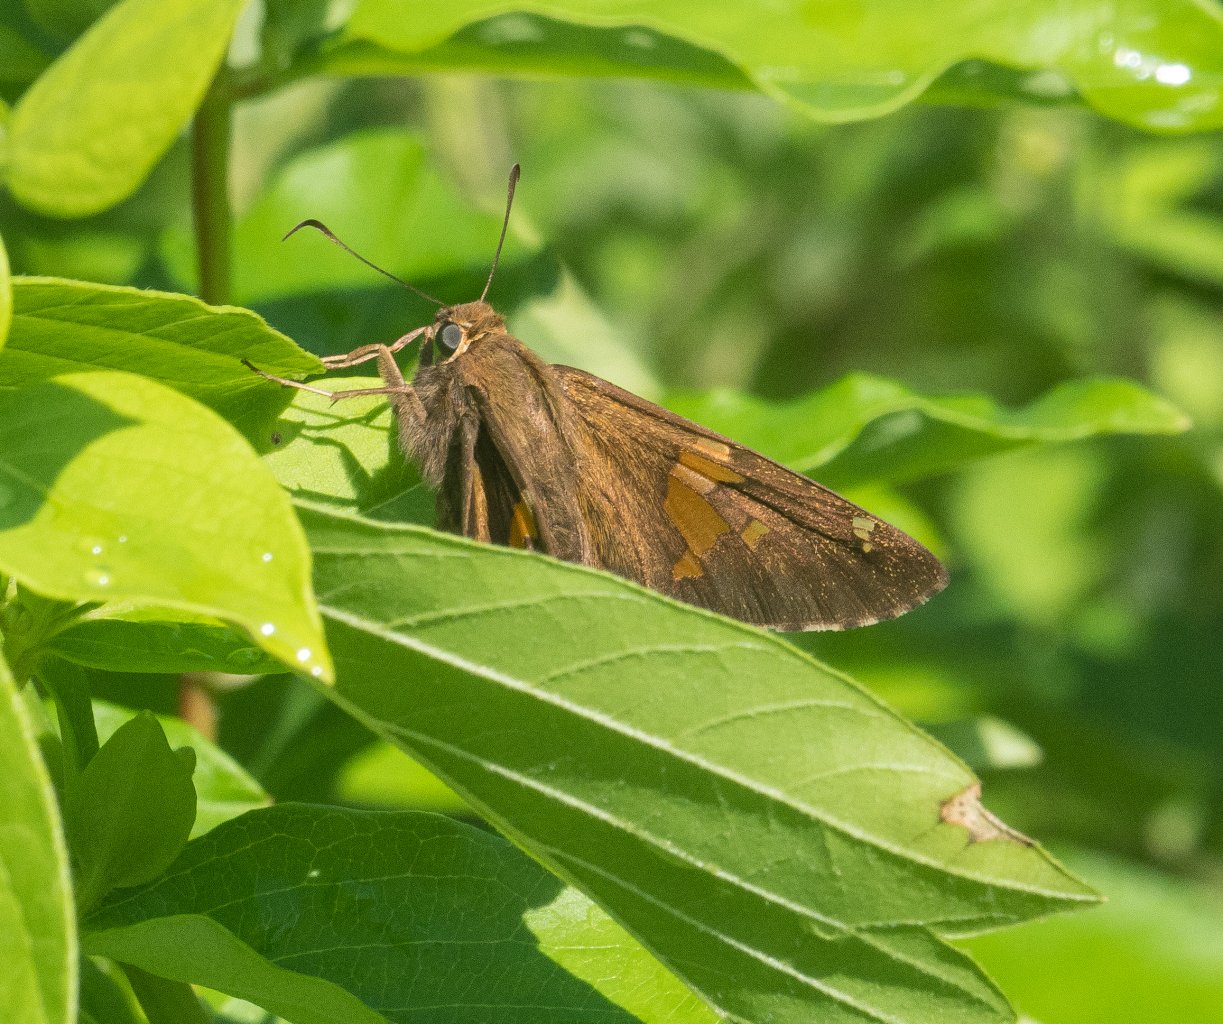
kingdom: Animalia
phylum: Arthropoda
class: Insecta
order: Lepidoptera
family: Hesperiidae
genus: Epargyreus
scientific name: Epargyreus clarus
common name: Silver-spotted Skipper
